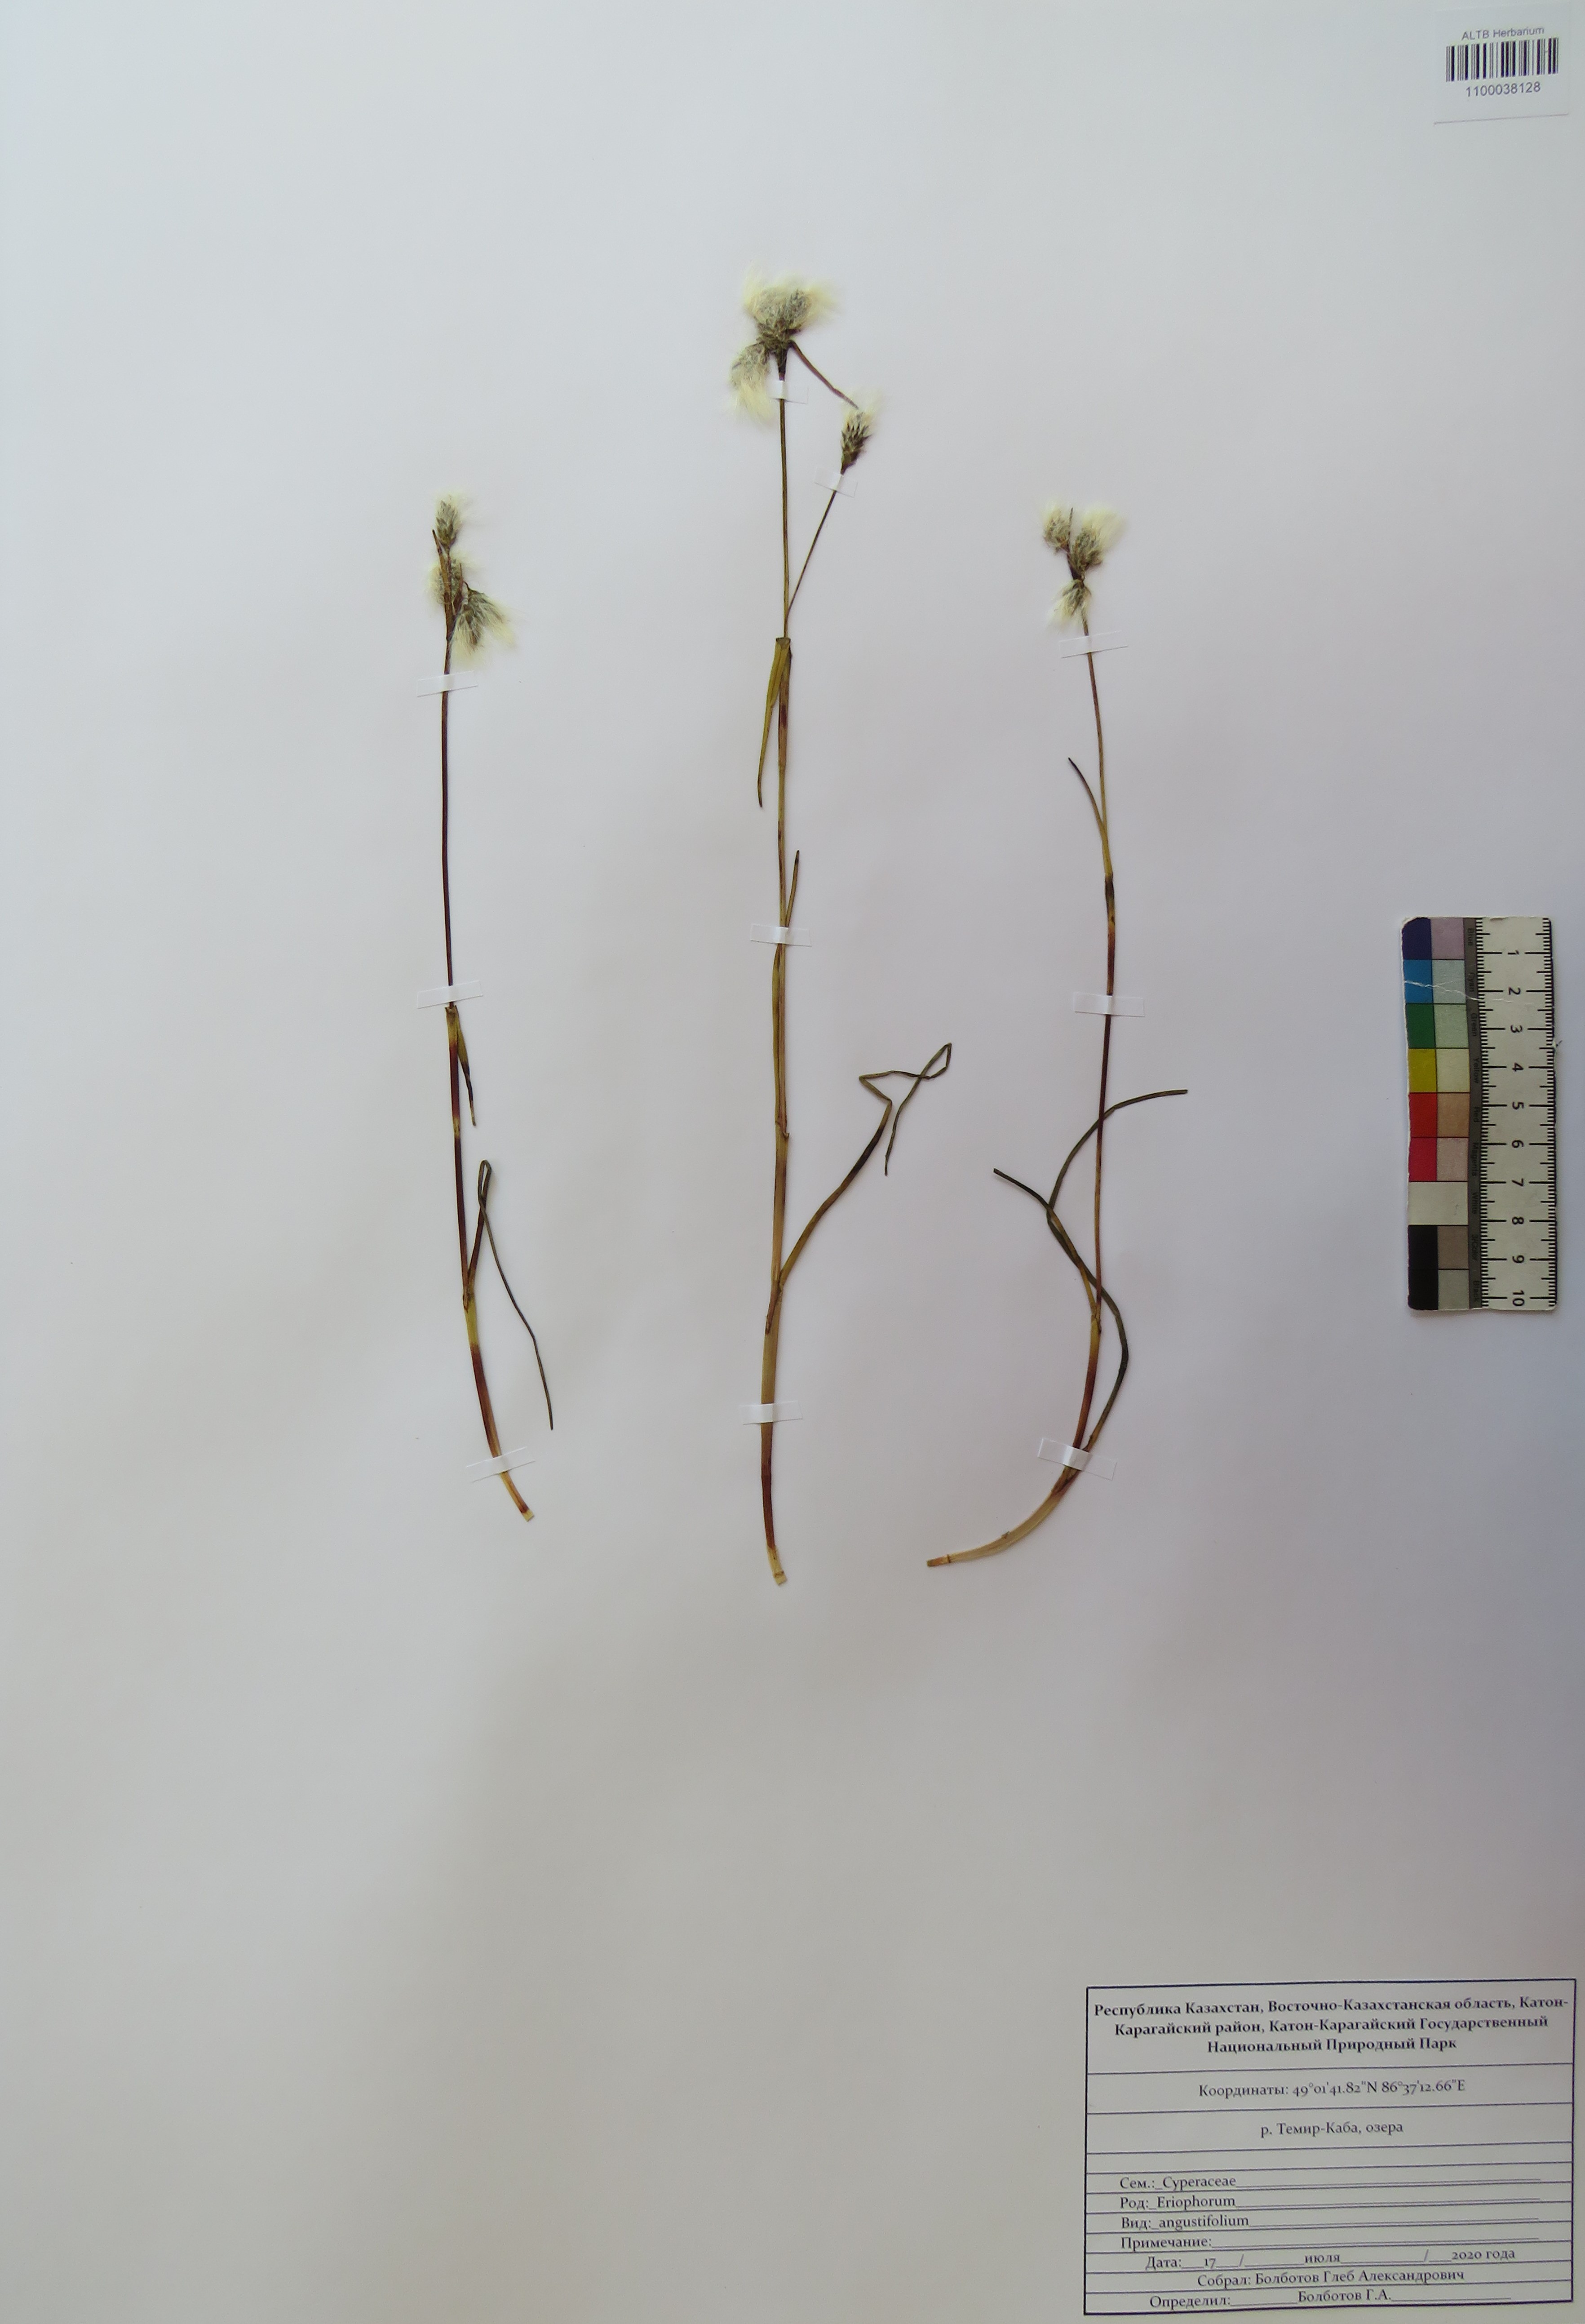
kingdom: Plantae
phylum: Tracheophyta
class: Liliopsida
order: Poales
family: Cyperaceae
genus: Eriophorum
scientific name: Eriophorum angustifolium
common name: Common cottongrass
